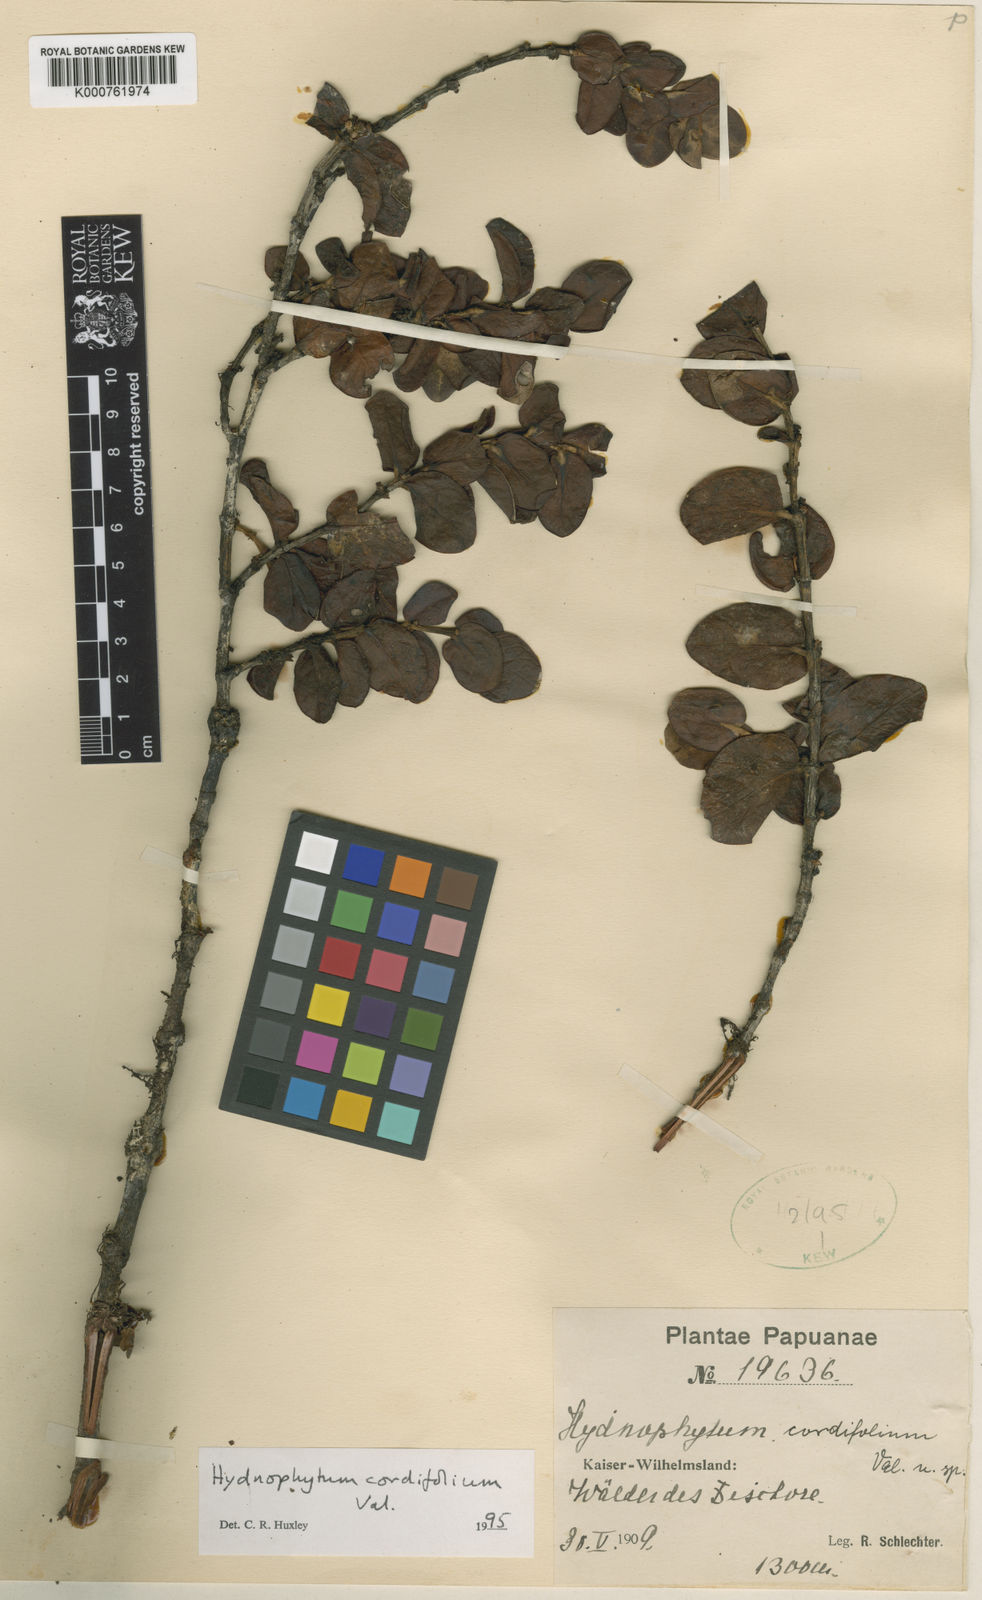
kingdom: Plantae
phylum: Tracheophyta
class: Magnoliopsida
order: Gentianales
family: Rubiaceae
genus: Hydnophytum
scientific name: Hydnophytum cordifolium
